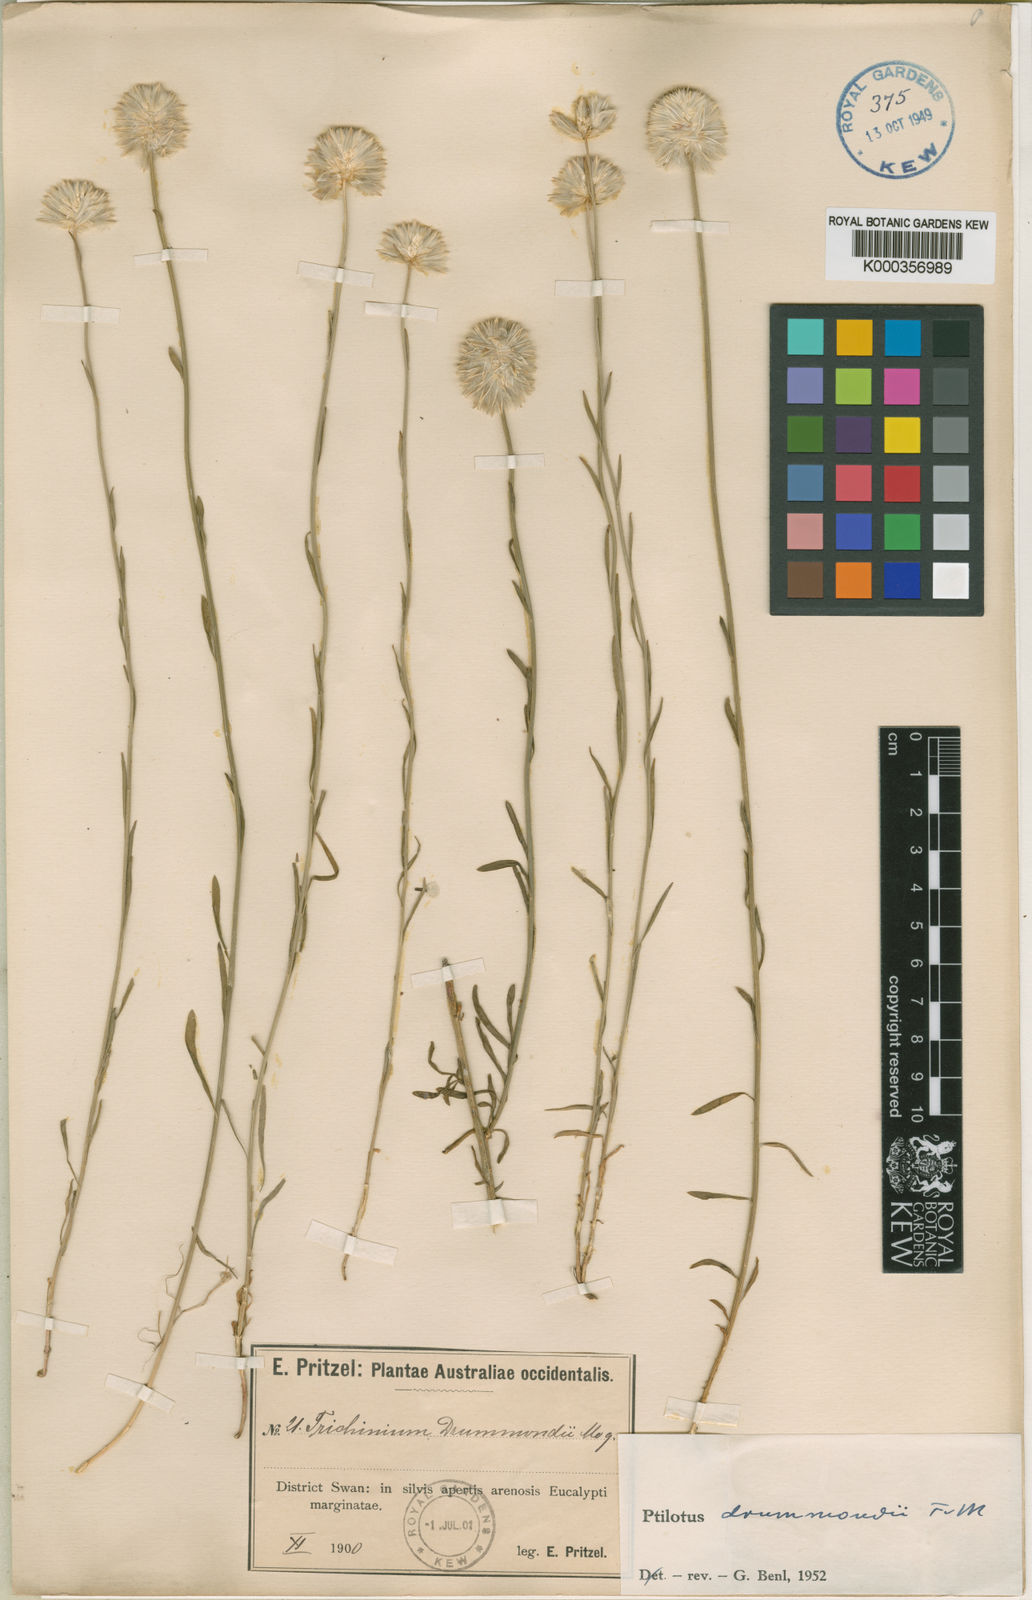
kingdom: Plantae
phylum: Tracheophyta
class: Magnoliopsida
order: Caryophyllales
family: Amaranthaceae
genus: Ptilotus
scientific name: Ptilotus drummondii
